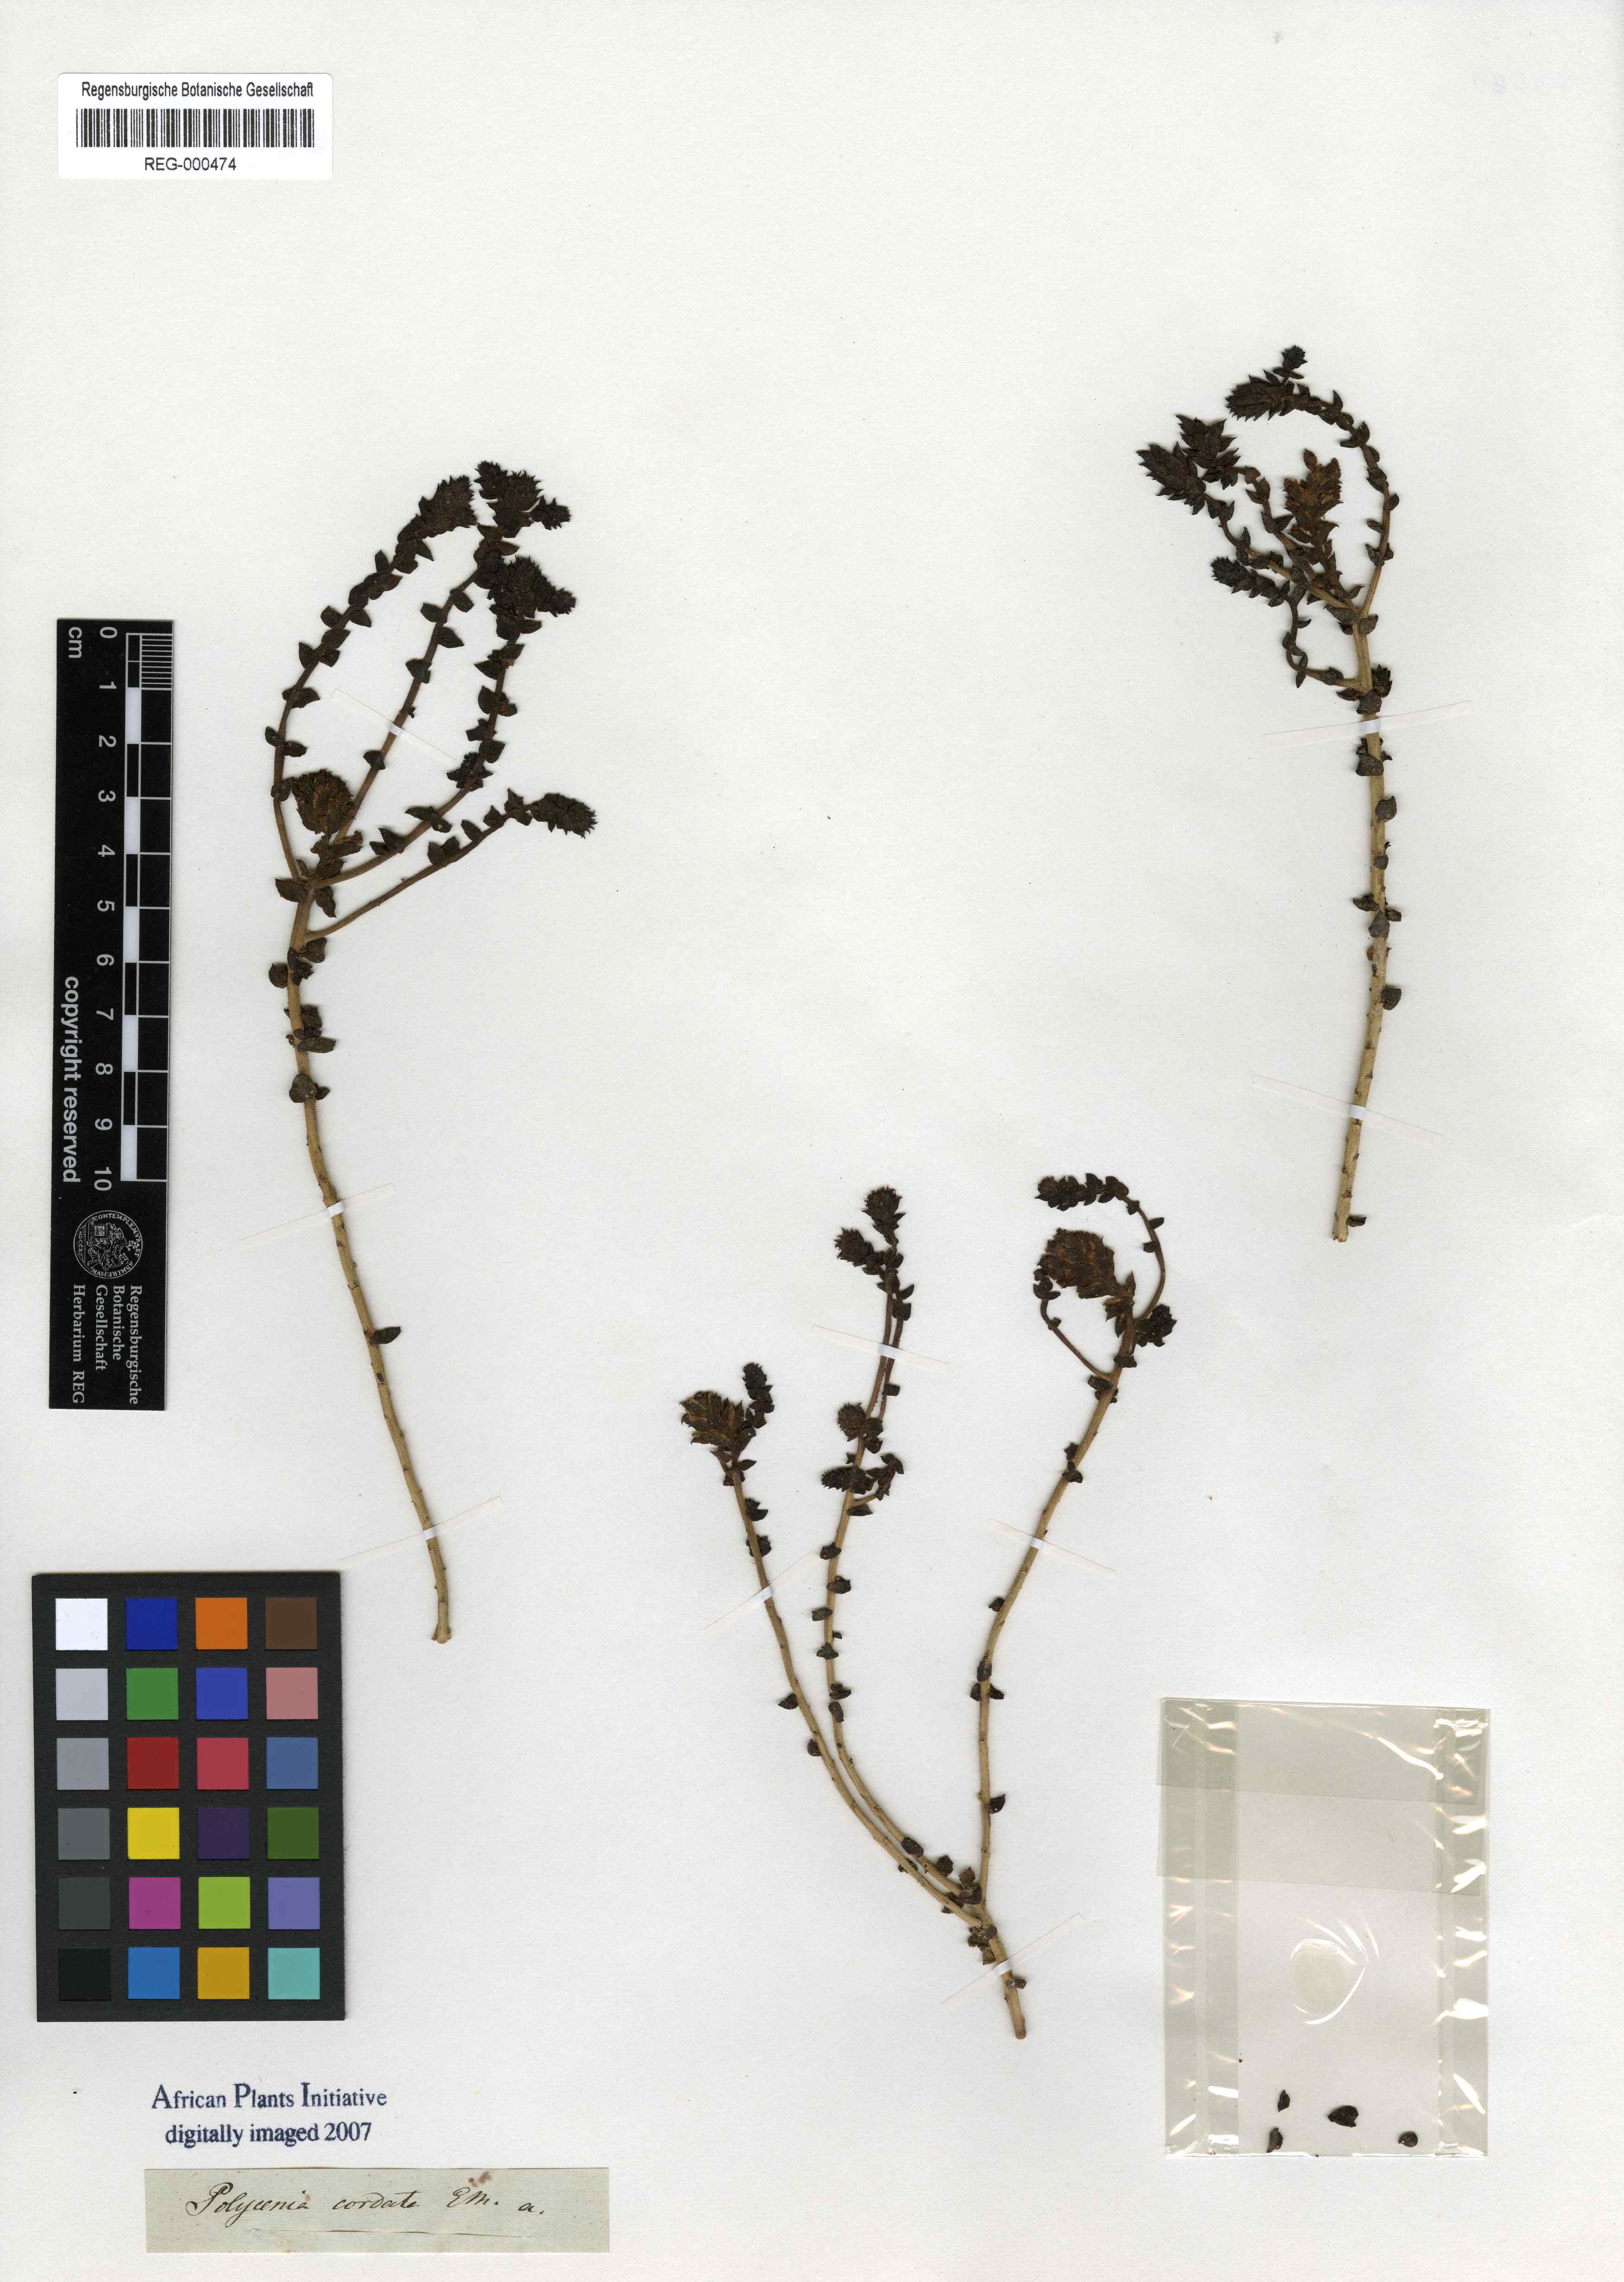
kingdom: Plantae
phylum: Tracheophyta
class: Magnoliopsida
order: Lamiales
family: Scrophulariaceae
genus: Hebenstretia
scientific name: Hebenstretia cordata
